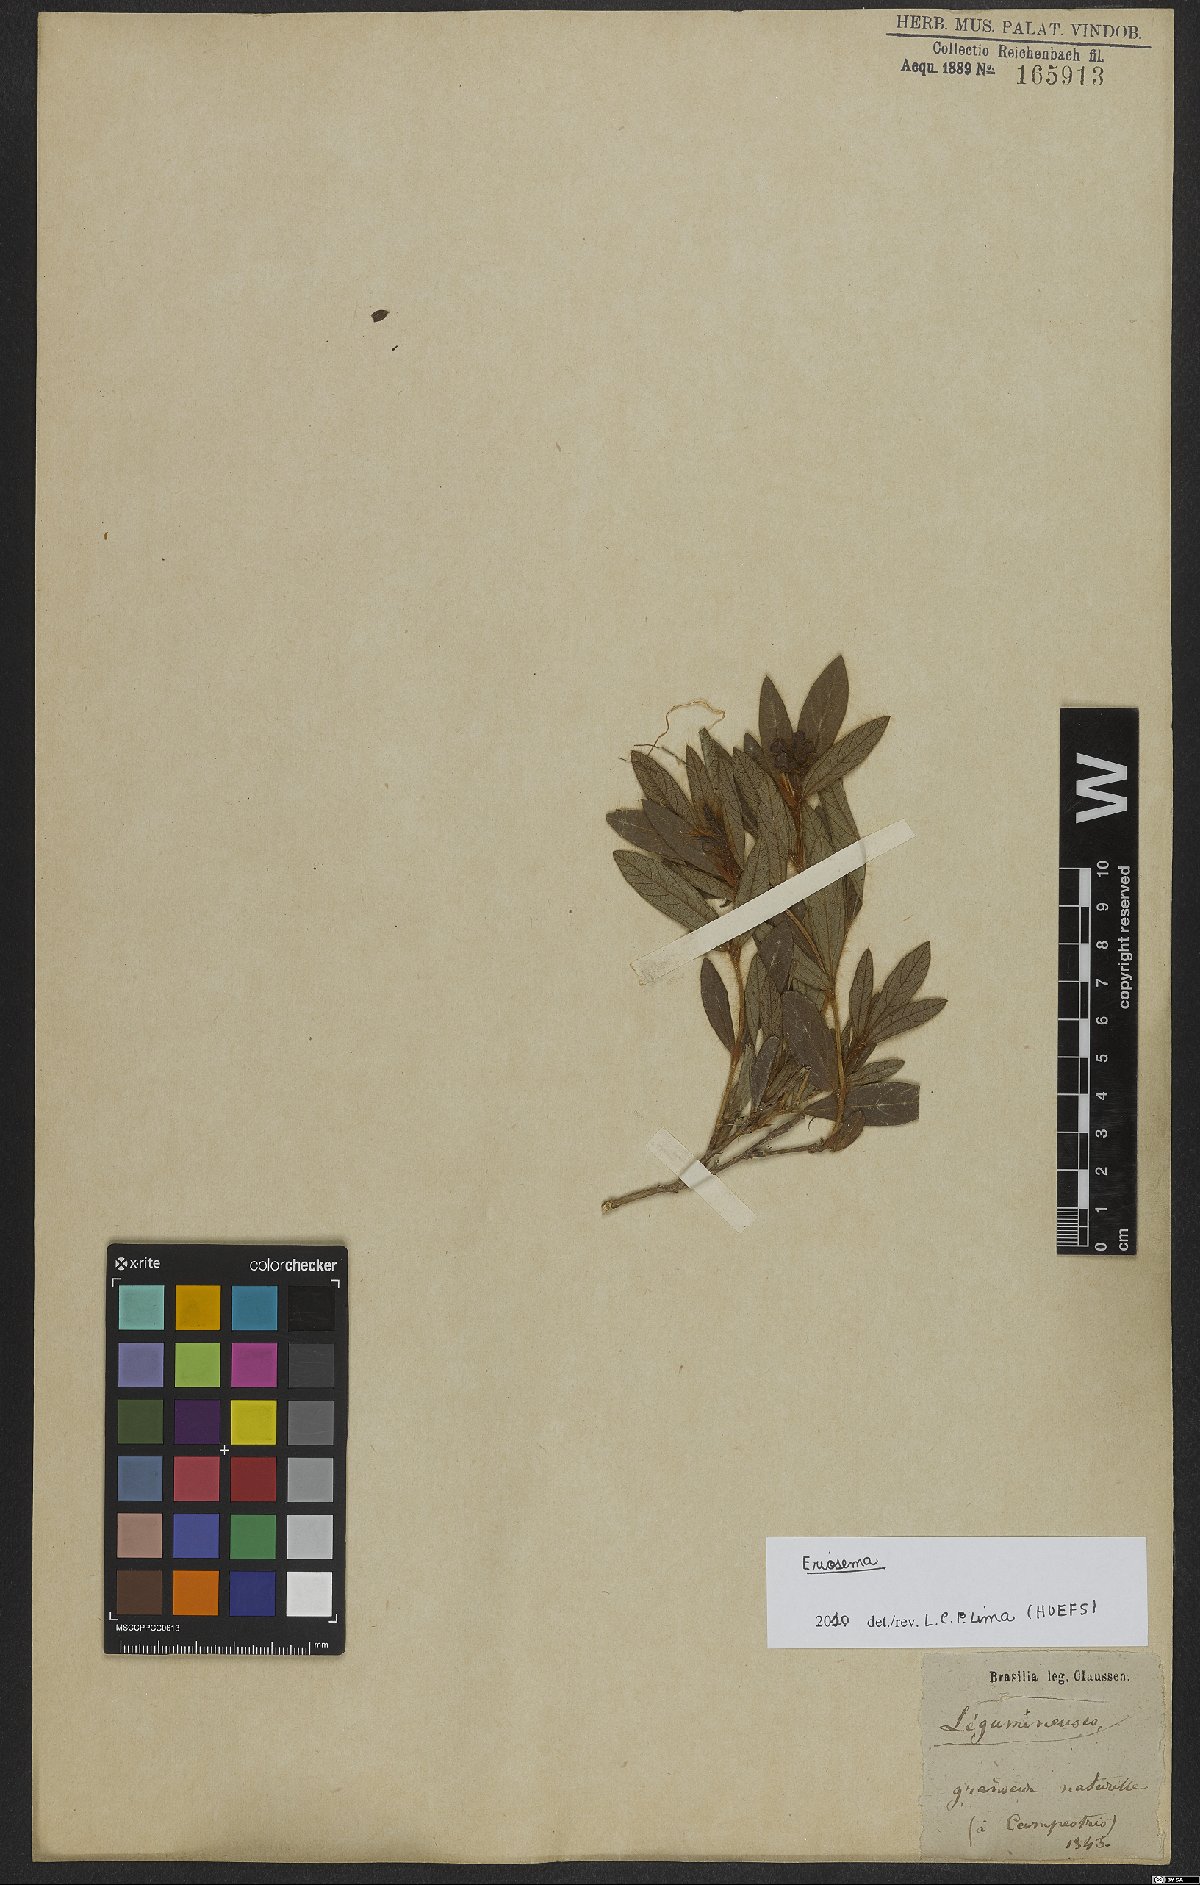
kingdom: Plantae
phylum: Tracheophyta
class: Magnoliopsida
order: Fabales
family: Fabaceae
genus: Eriosema
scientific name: Eriosema crinitum
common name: Sand pea
